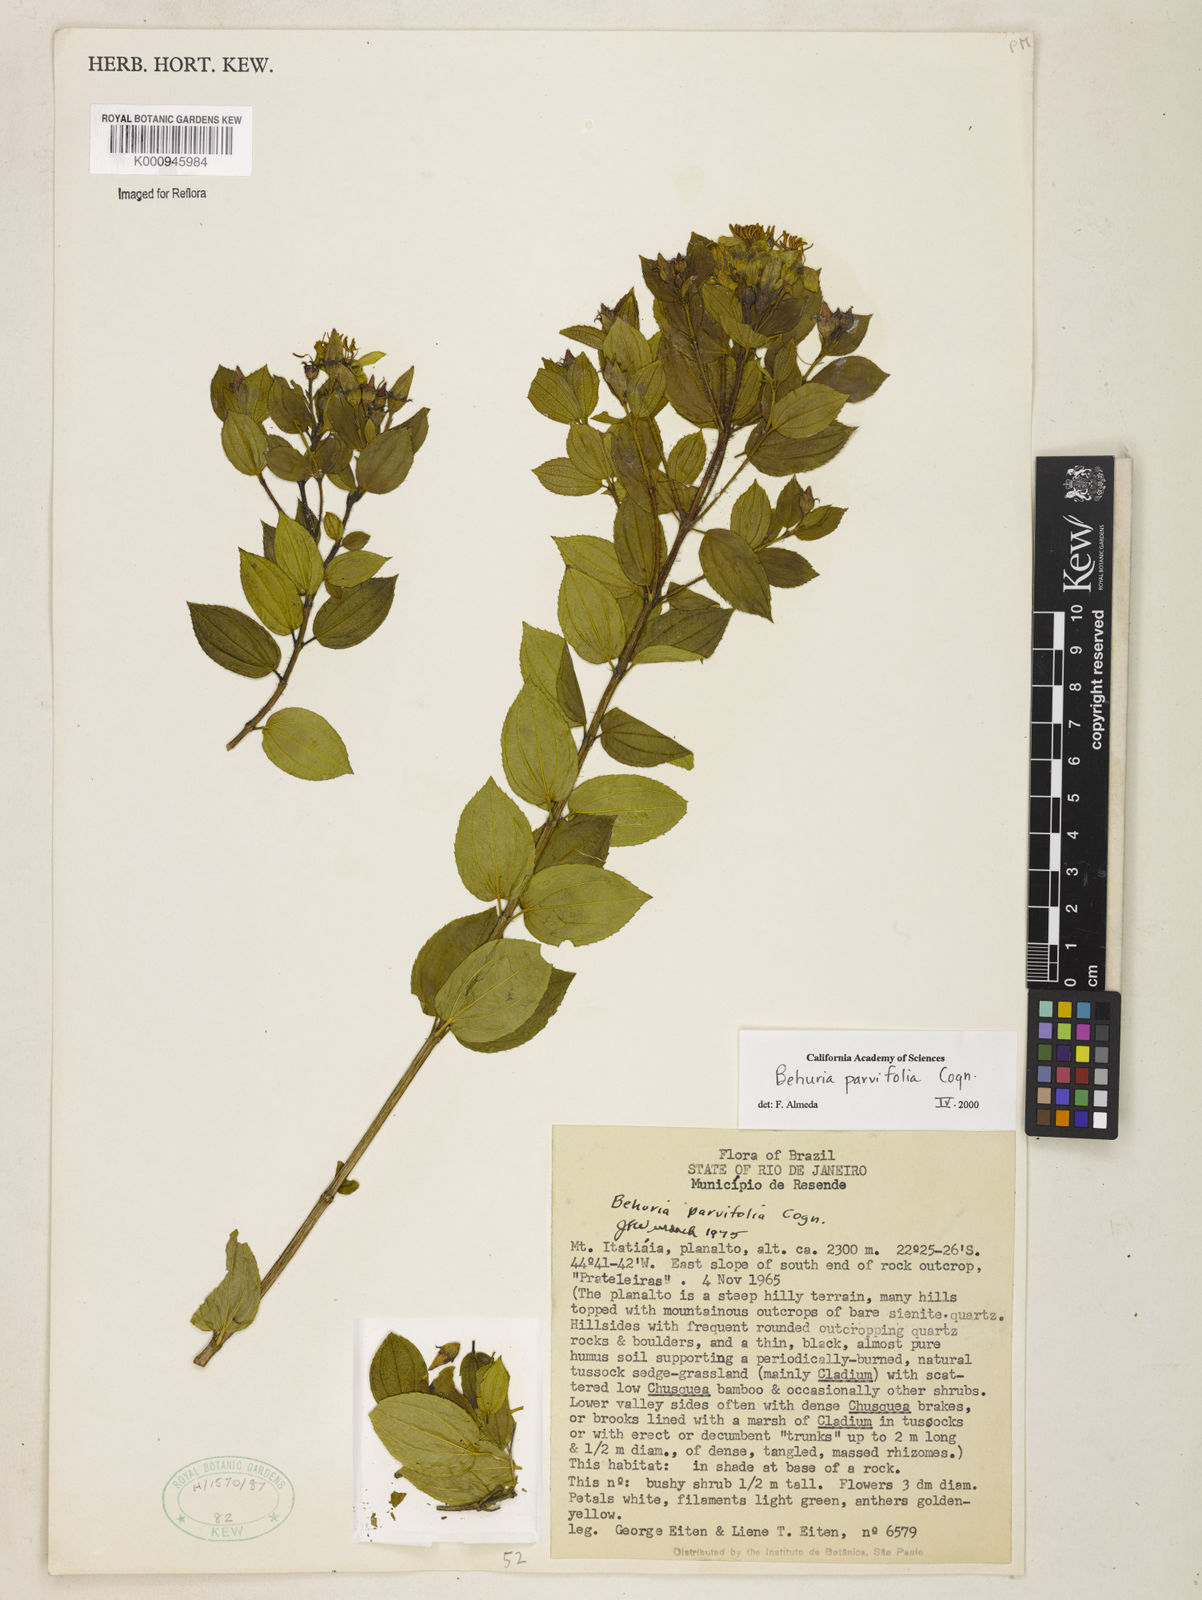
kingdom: Plantae
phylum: Tracheophyta
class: Magnoliopsida
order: Myrtales
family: Melastomataceae
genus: Huberia
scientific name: Huberia minutifolia
